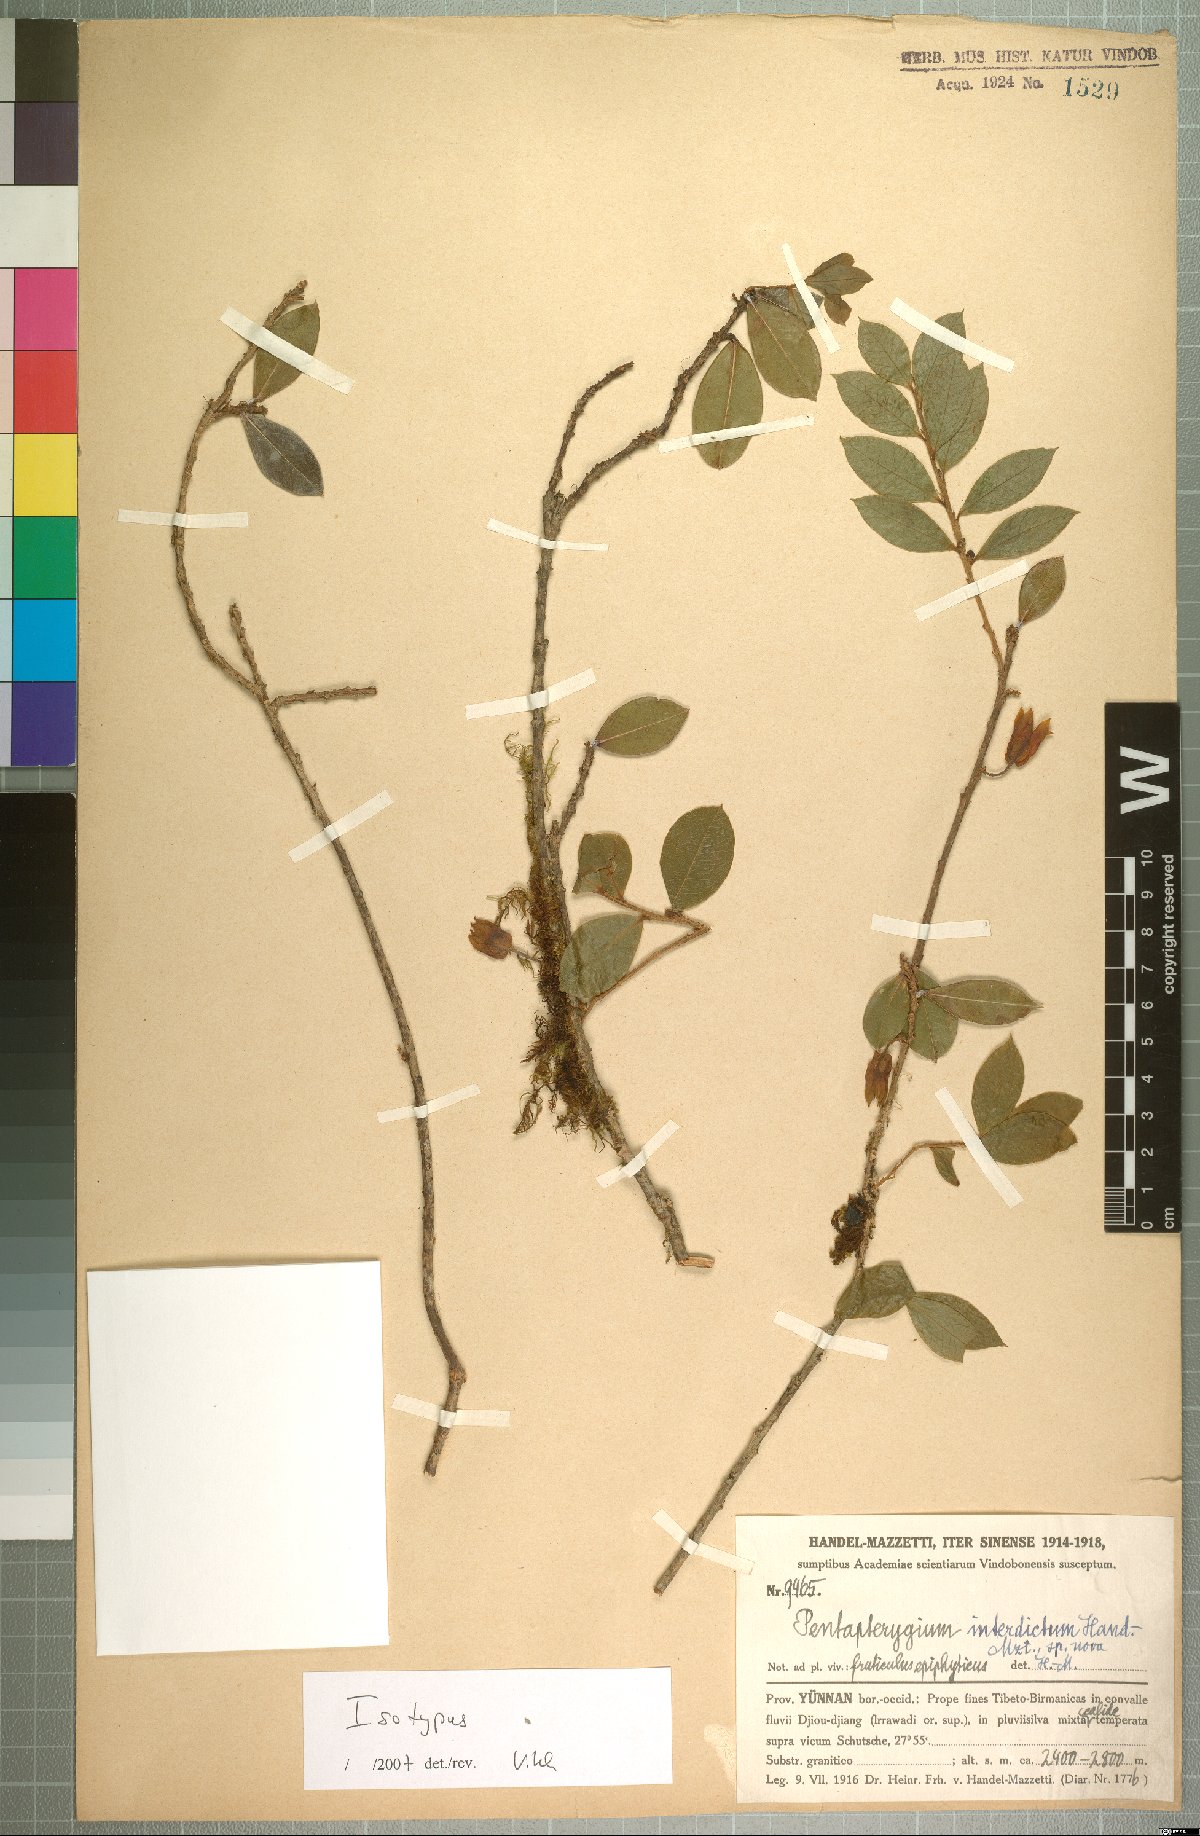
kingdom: Plantae
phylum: Tracheophyta
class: Magnoliopsida
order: Ericales
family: Ericaceae
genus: Agapetes
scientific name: Agapetes interdicta
